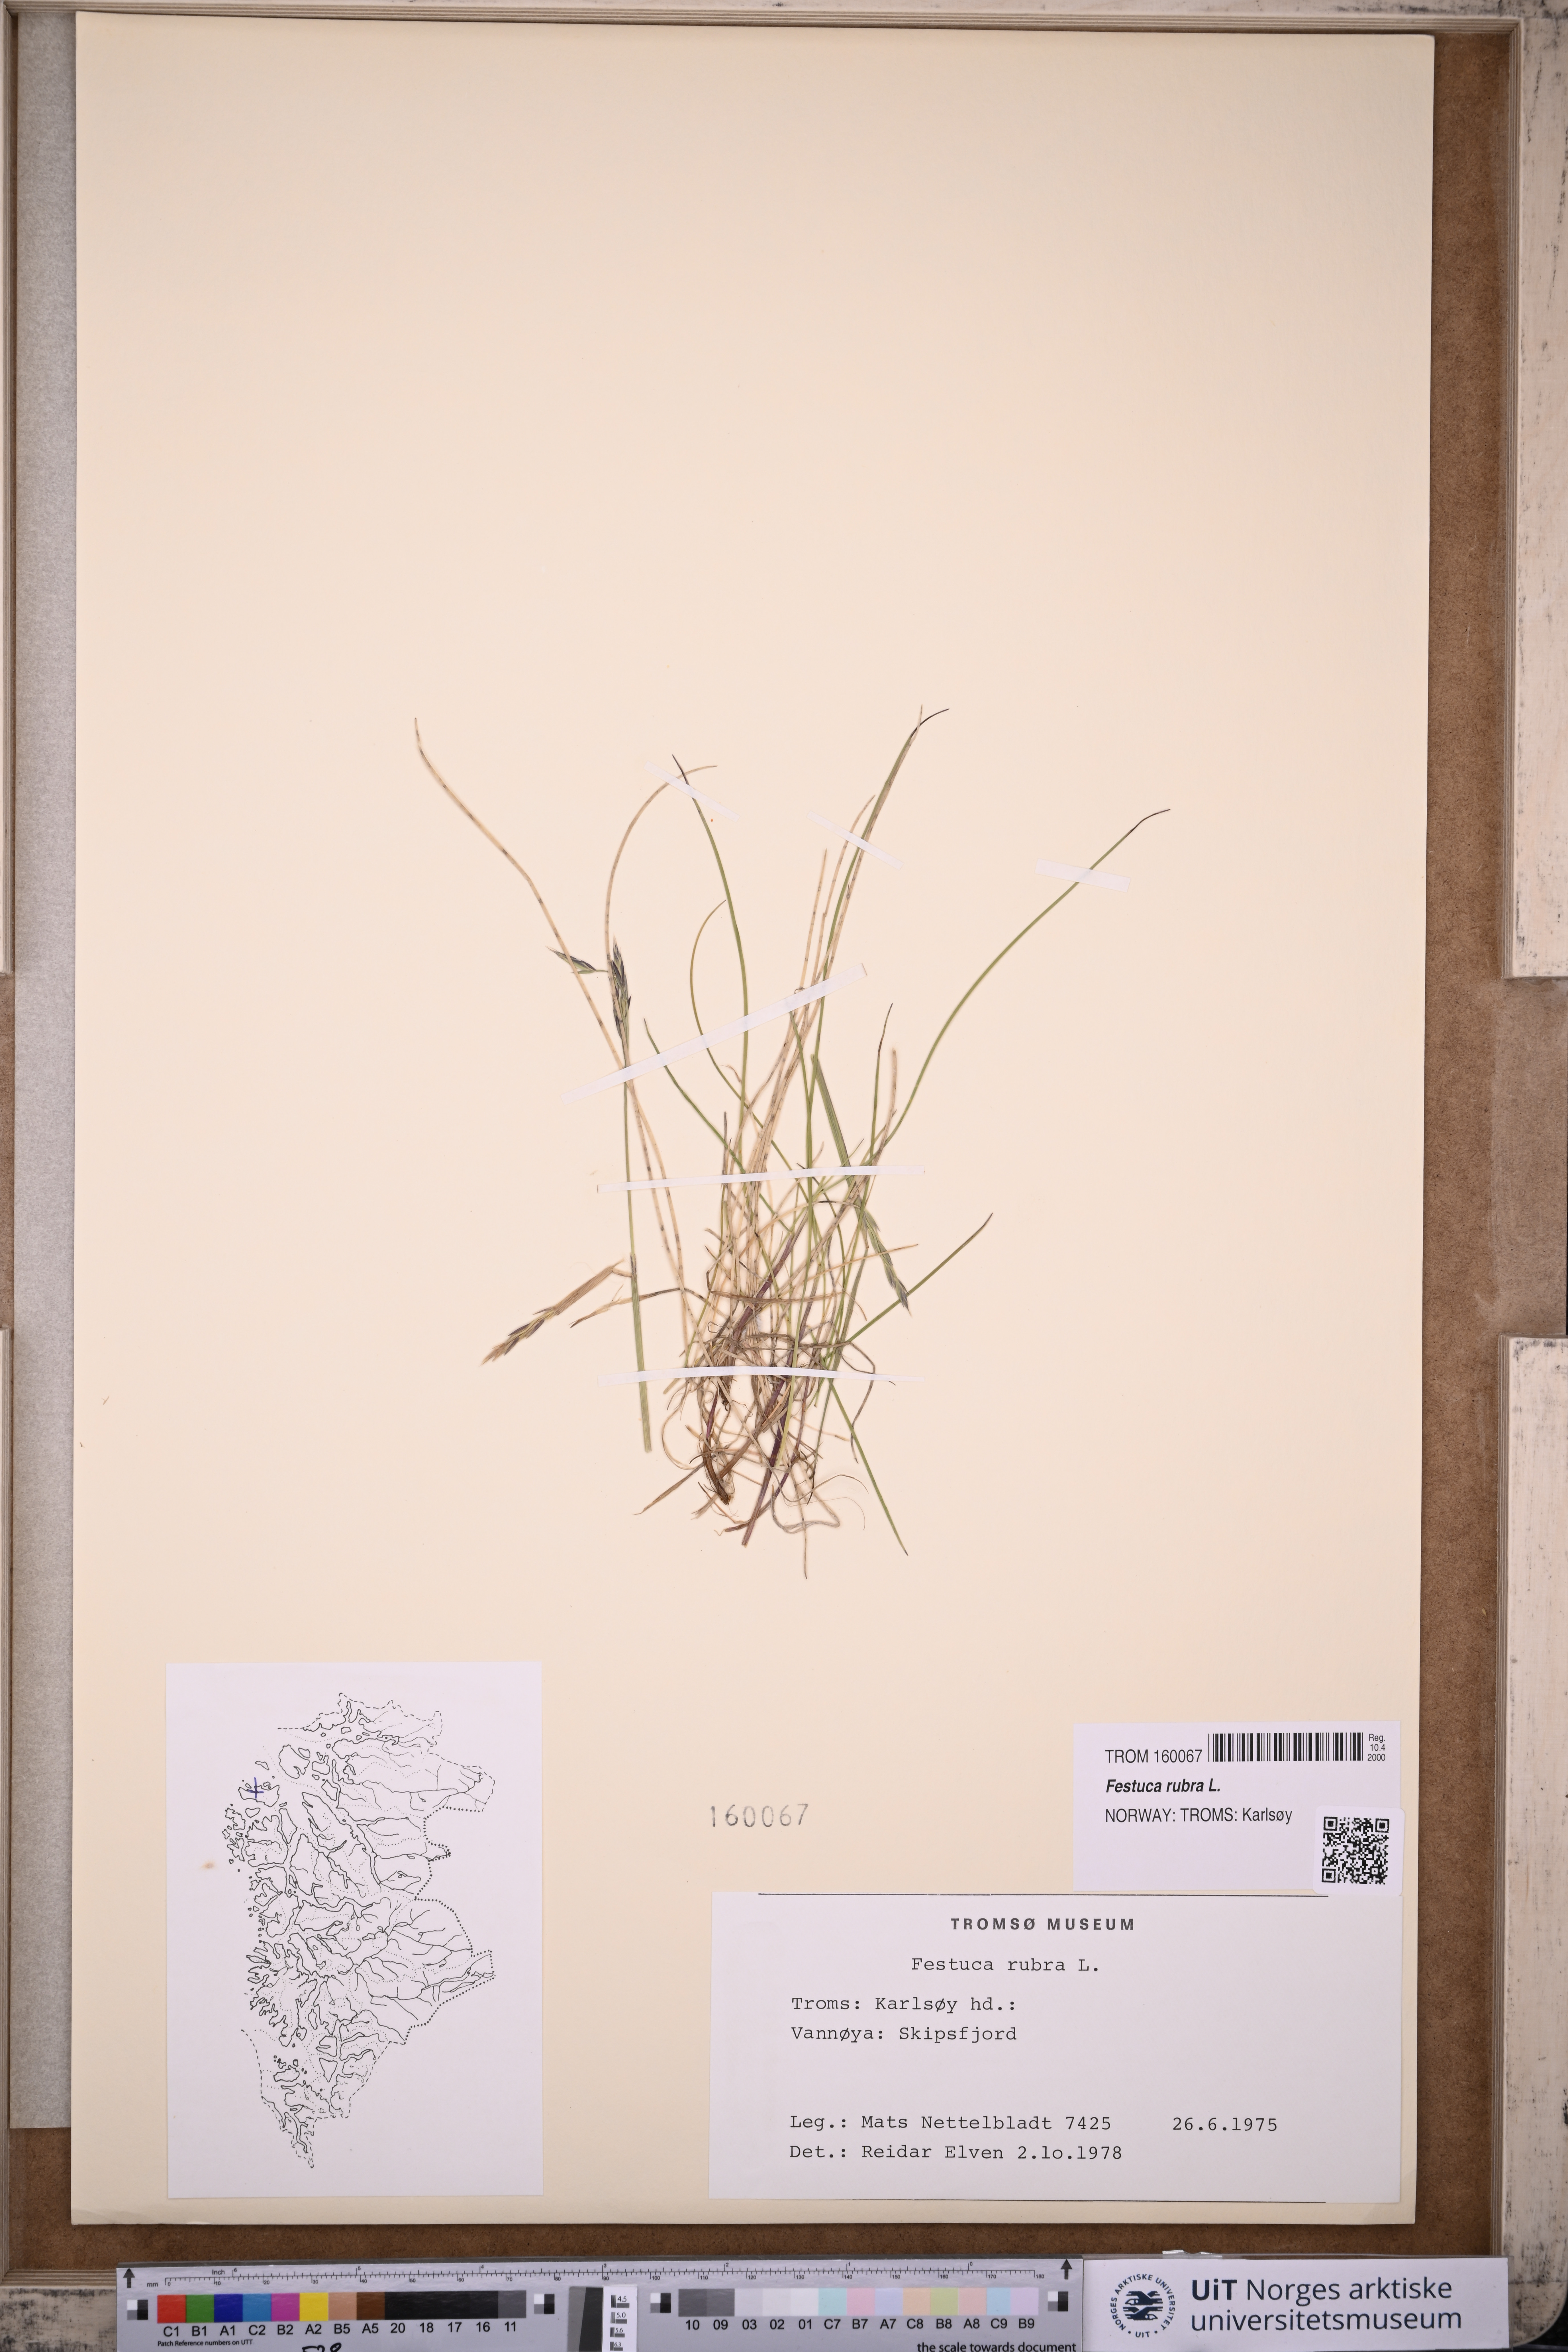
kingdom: Plantae
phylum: Tracheophyta
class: Liliopsida
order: Poales
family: Poaceae
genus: Festuca
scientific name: Festuca rubra
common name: Red fescue
